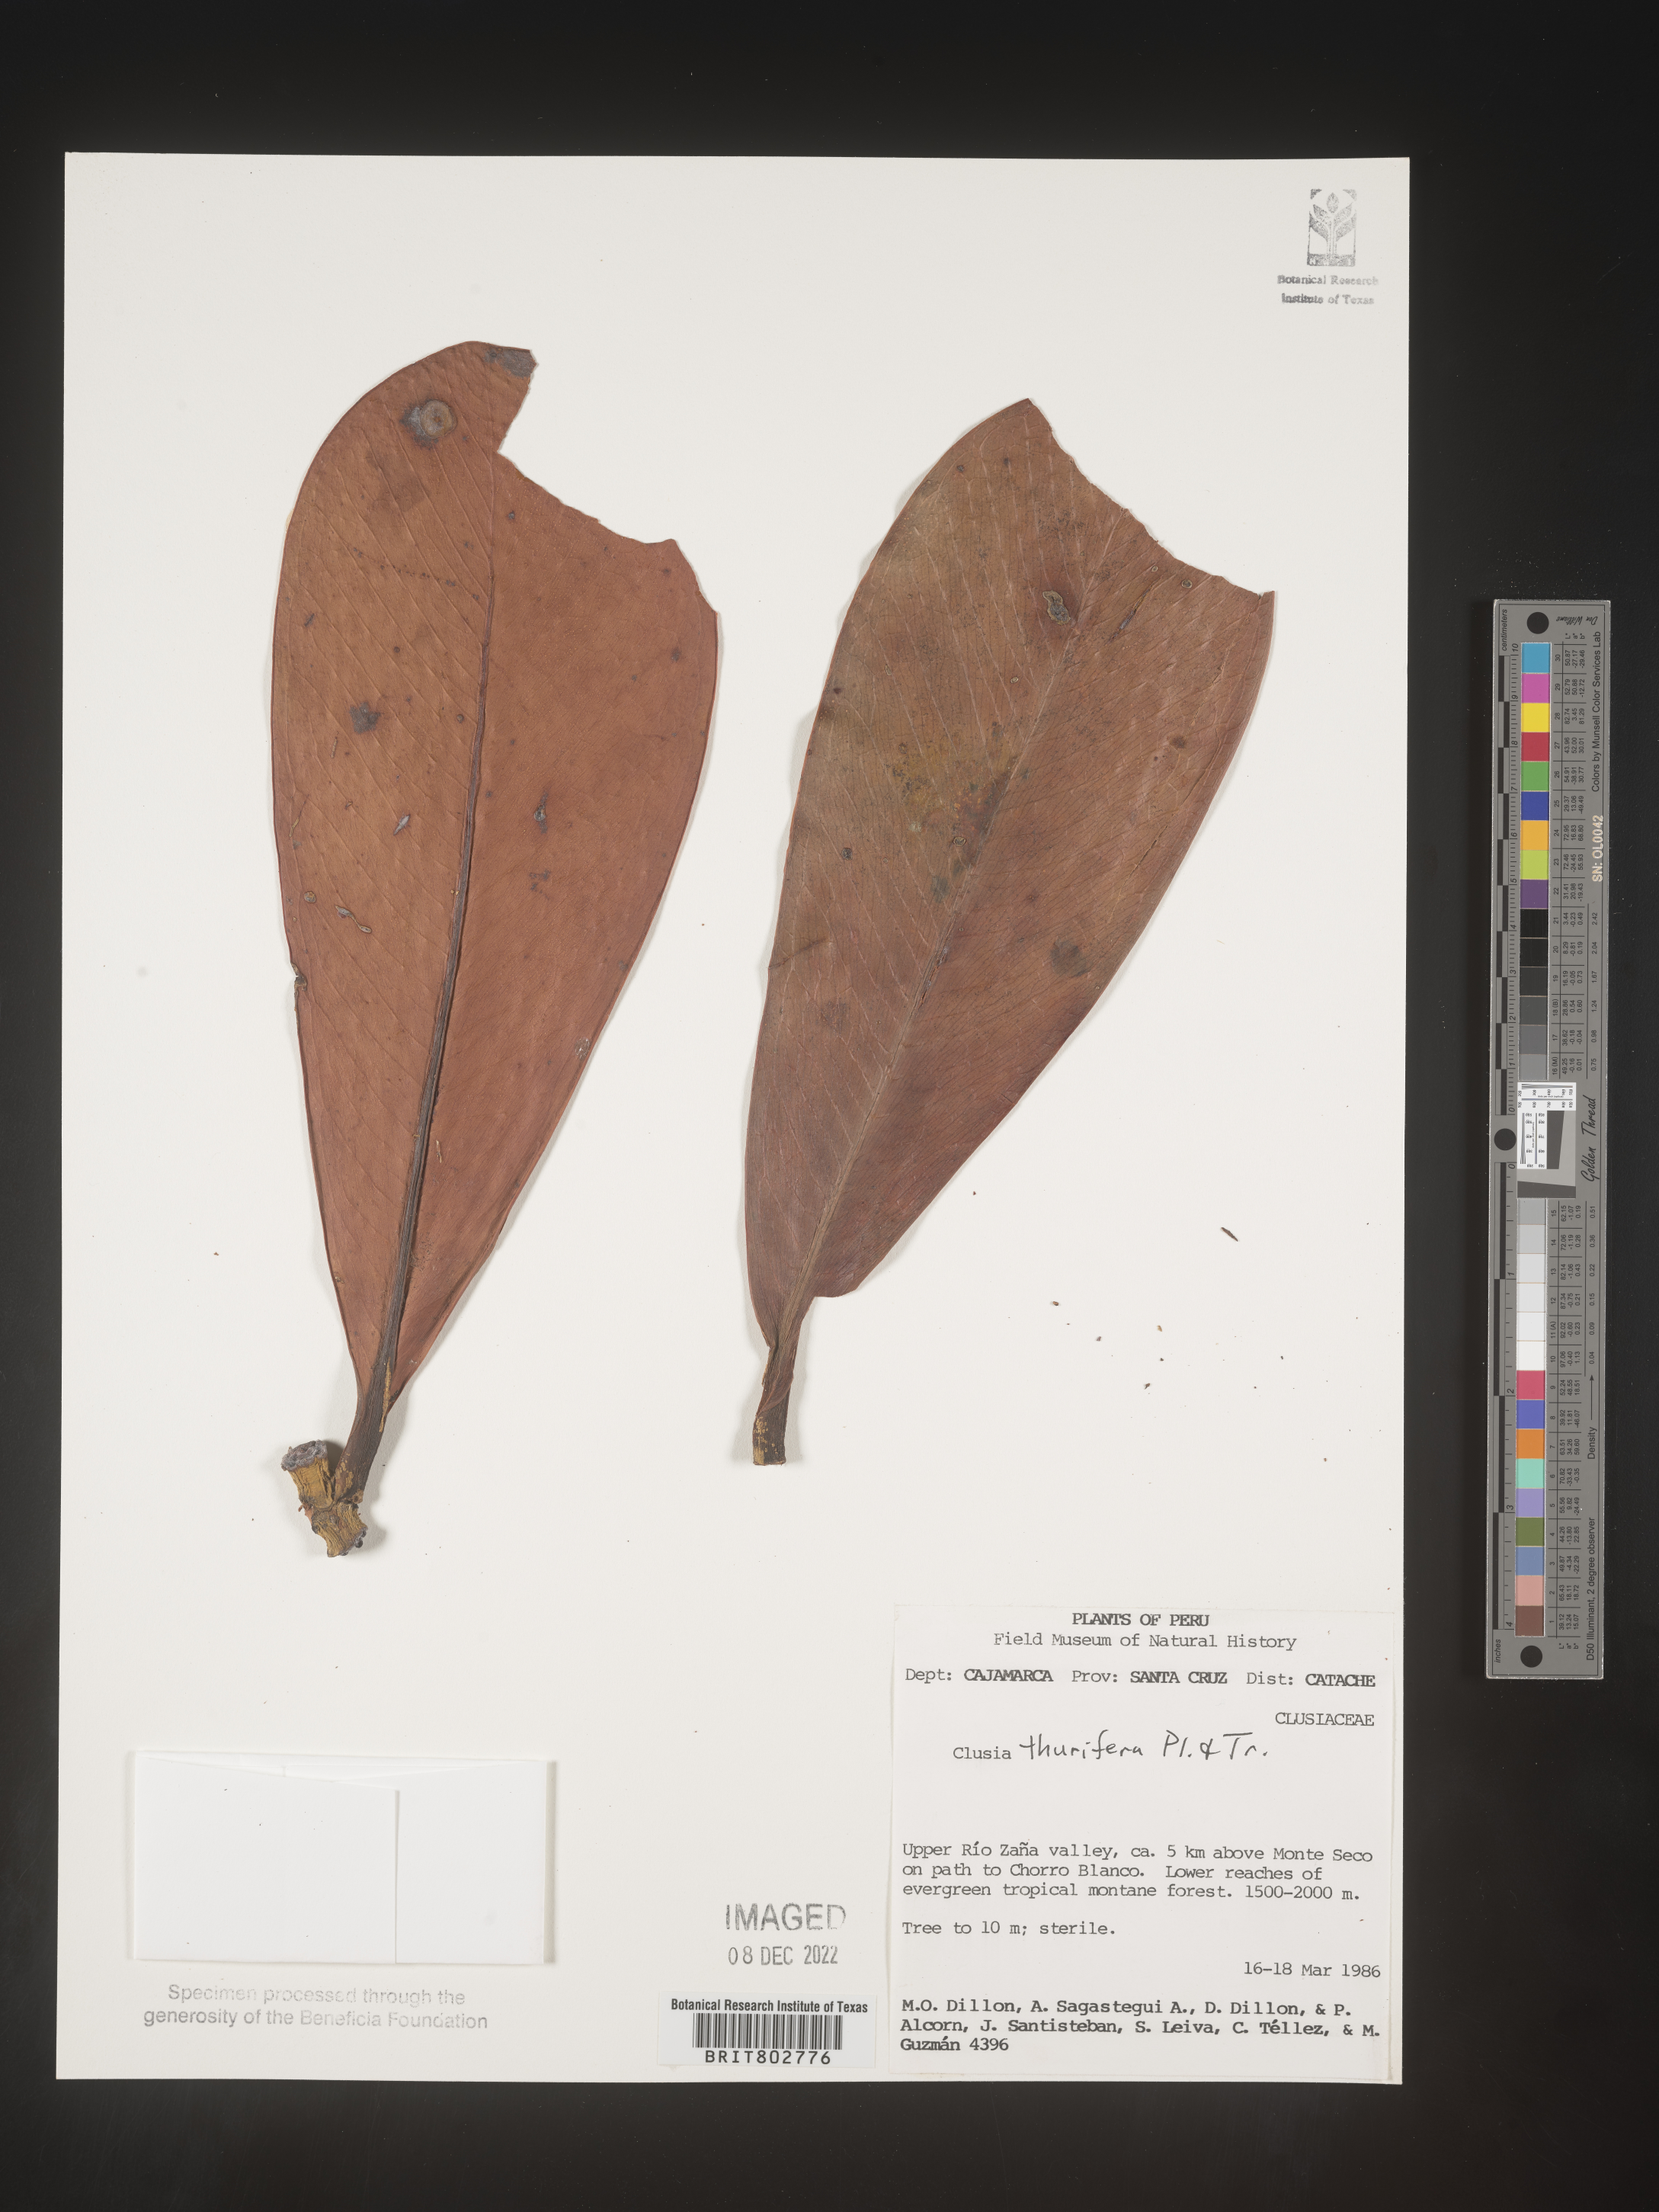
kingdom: Plantae
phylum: Tracheophyta
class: Magnoliopsida
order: Malpighiales
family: Clusiaceae
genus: Clusia
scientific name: Clusia thurifera
